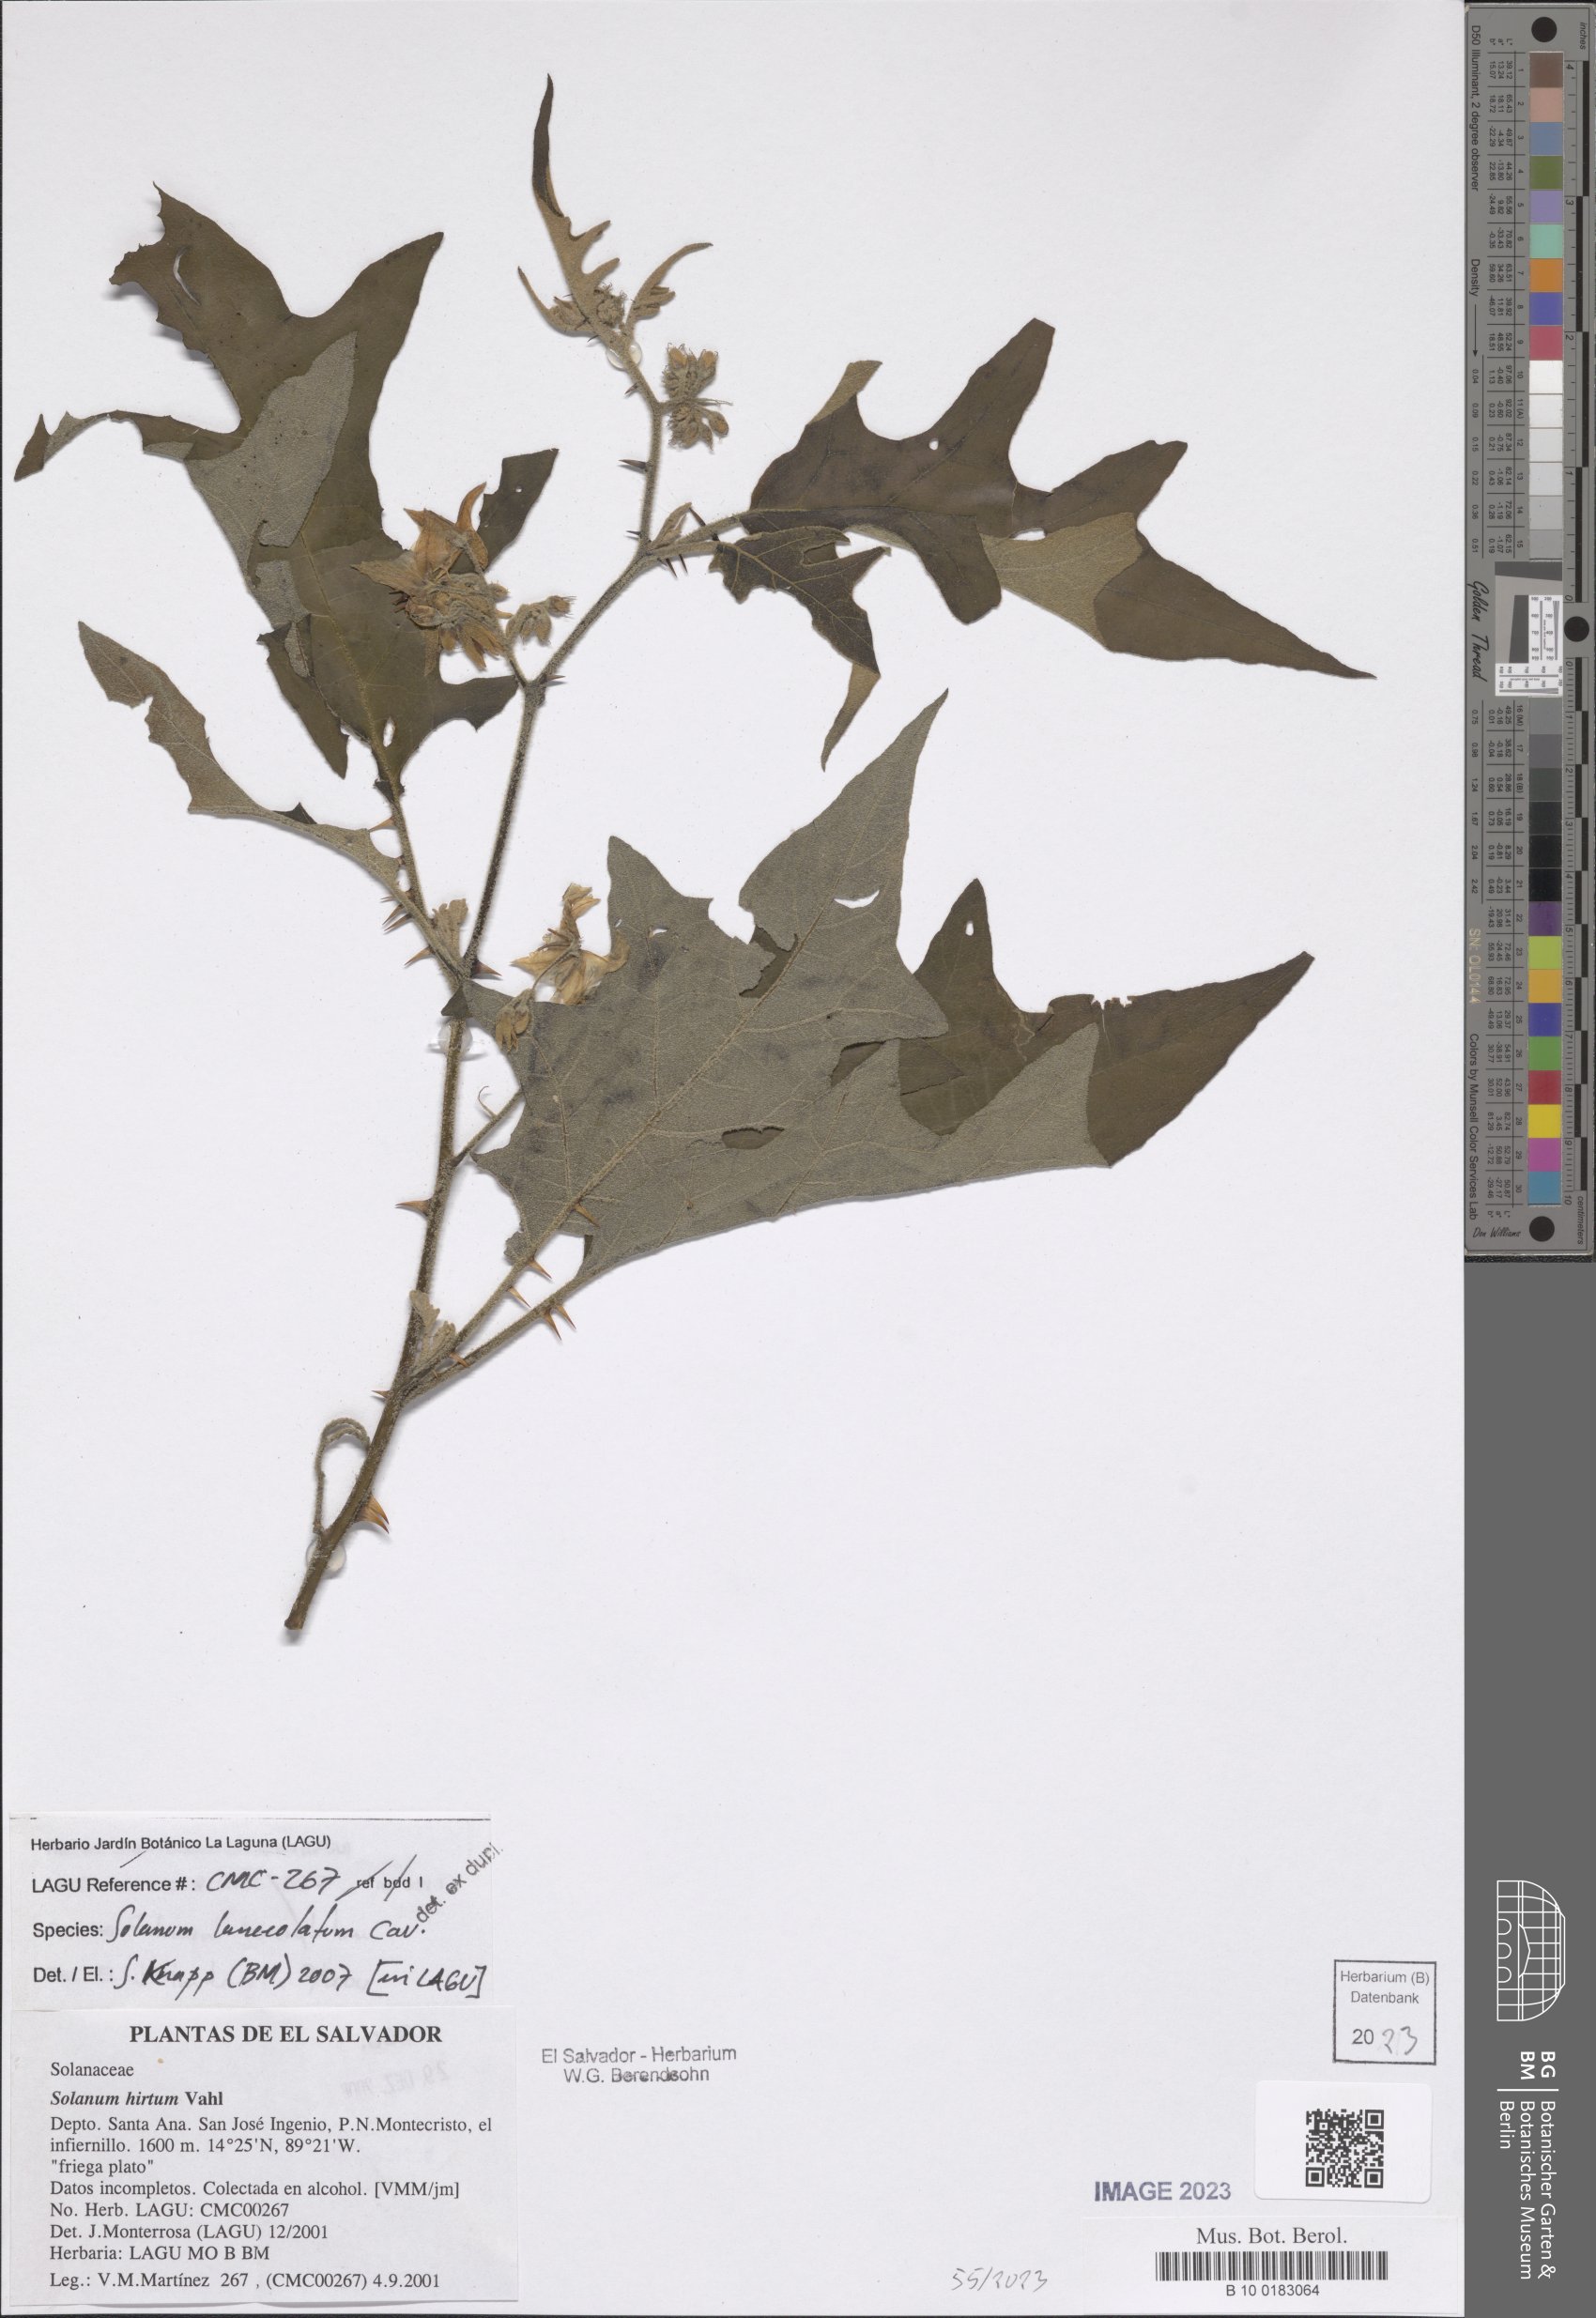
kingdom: Plantae
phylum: Tracheophyta
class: Magnoliopsida
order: Solanales
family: Solanaceae
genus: Solanum
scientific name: Solanum lanceolatum
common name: Orangeberry nightshade
